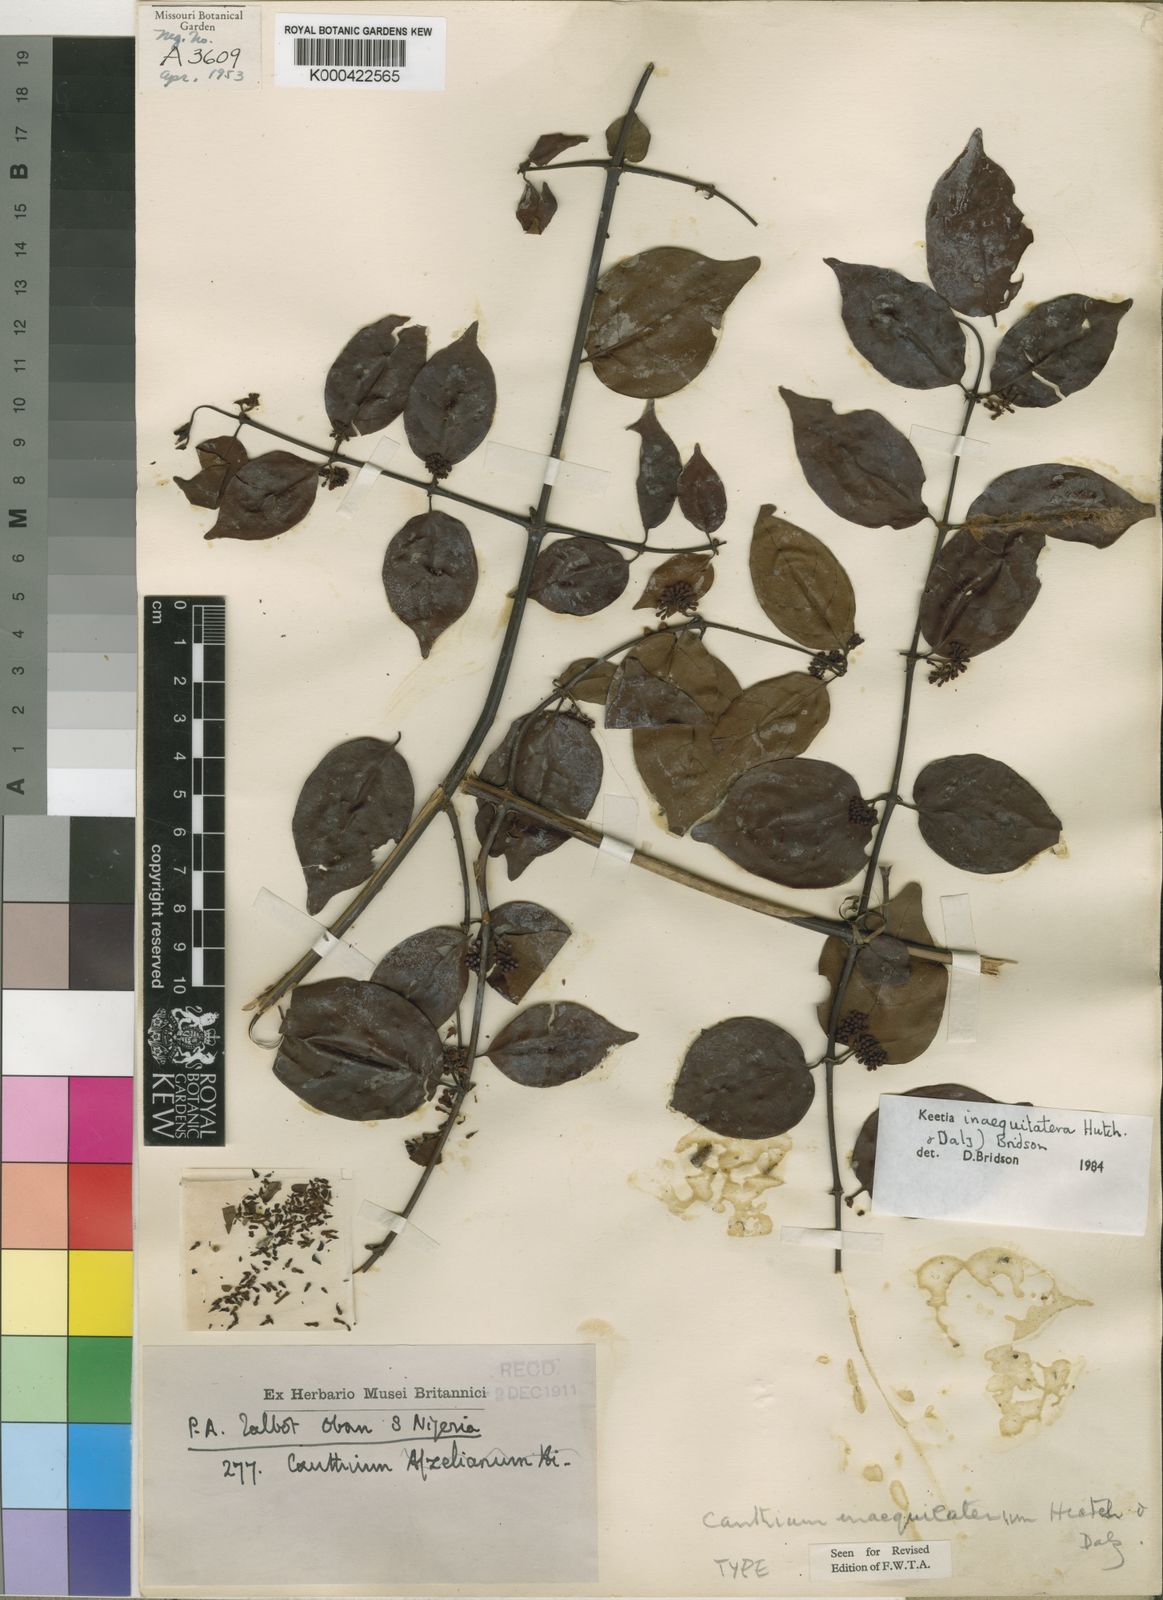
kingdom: Plantae
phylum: Tracheophyta
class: Magnoliopsida
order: Gentianales
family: Rubiaceae
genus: Keetia
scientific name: Keetia inaequilatera
